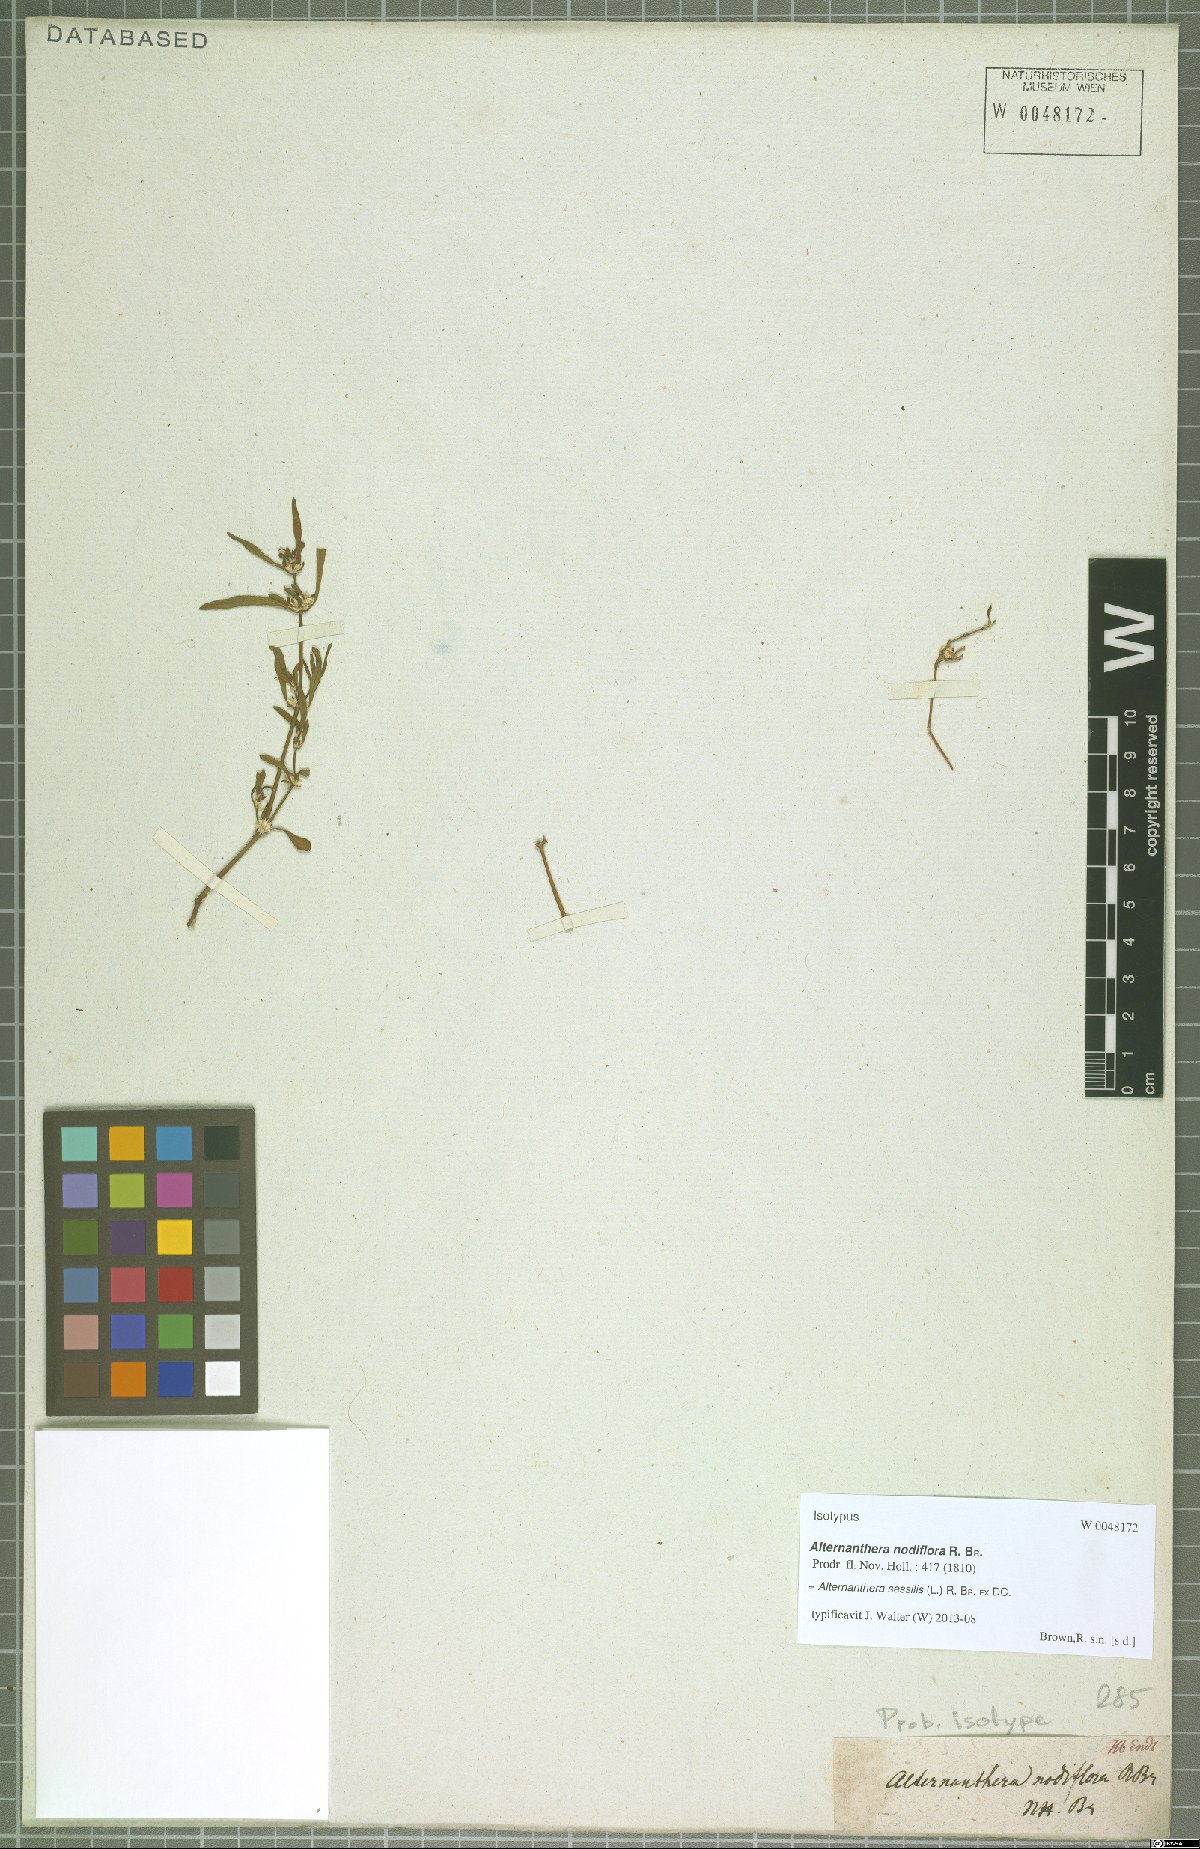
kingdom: Plantae
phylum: Tracheophyta
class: Magnoliopsida
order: Caryophyllales
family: Amaranthaceae
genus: Alternanthera
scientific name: Alternanthera sessilis
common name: Sessile joyweed
